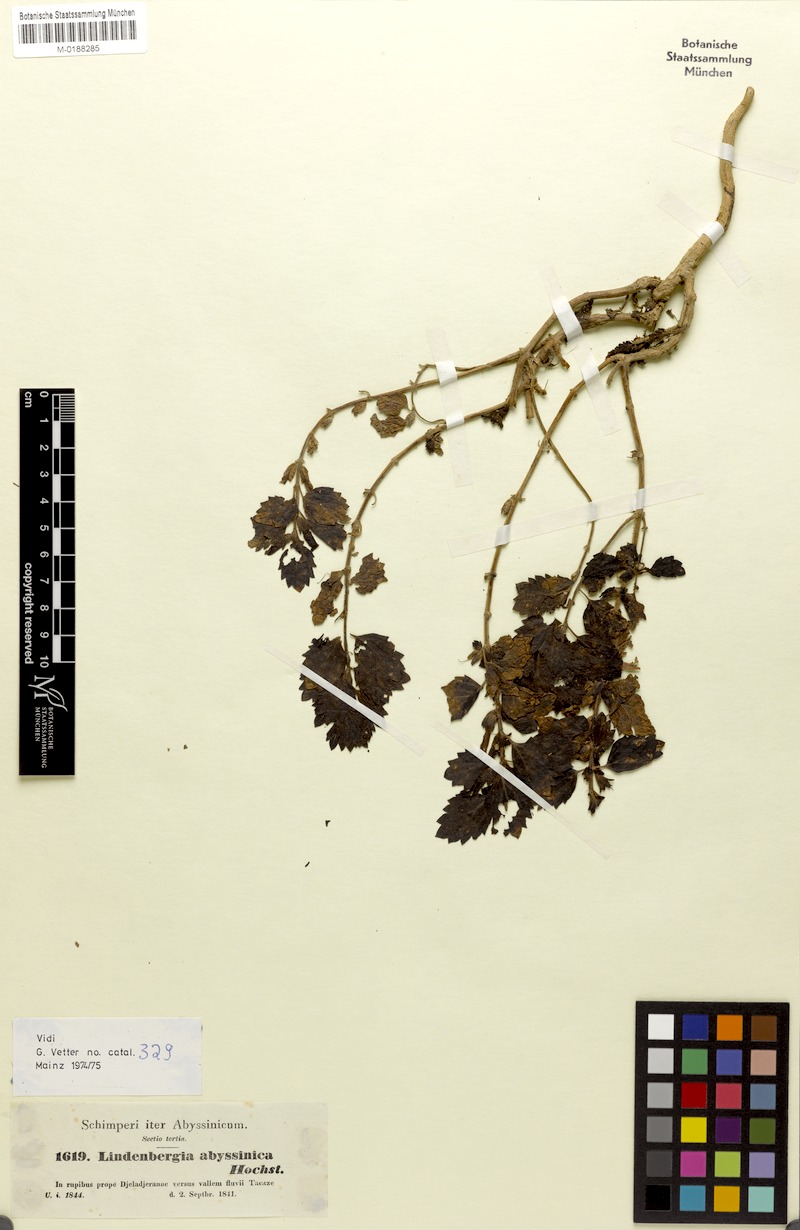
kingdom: Plantae
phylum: Tracheophyta
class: Magnoliopsida
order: Lamiales
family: Orobanchaceae
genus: Lindenbergia
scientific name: Lindenbergia indica
